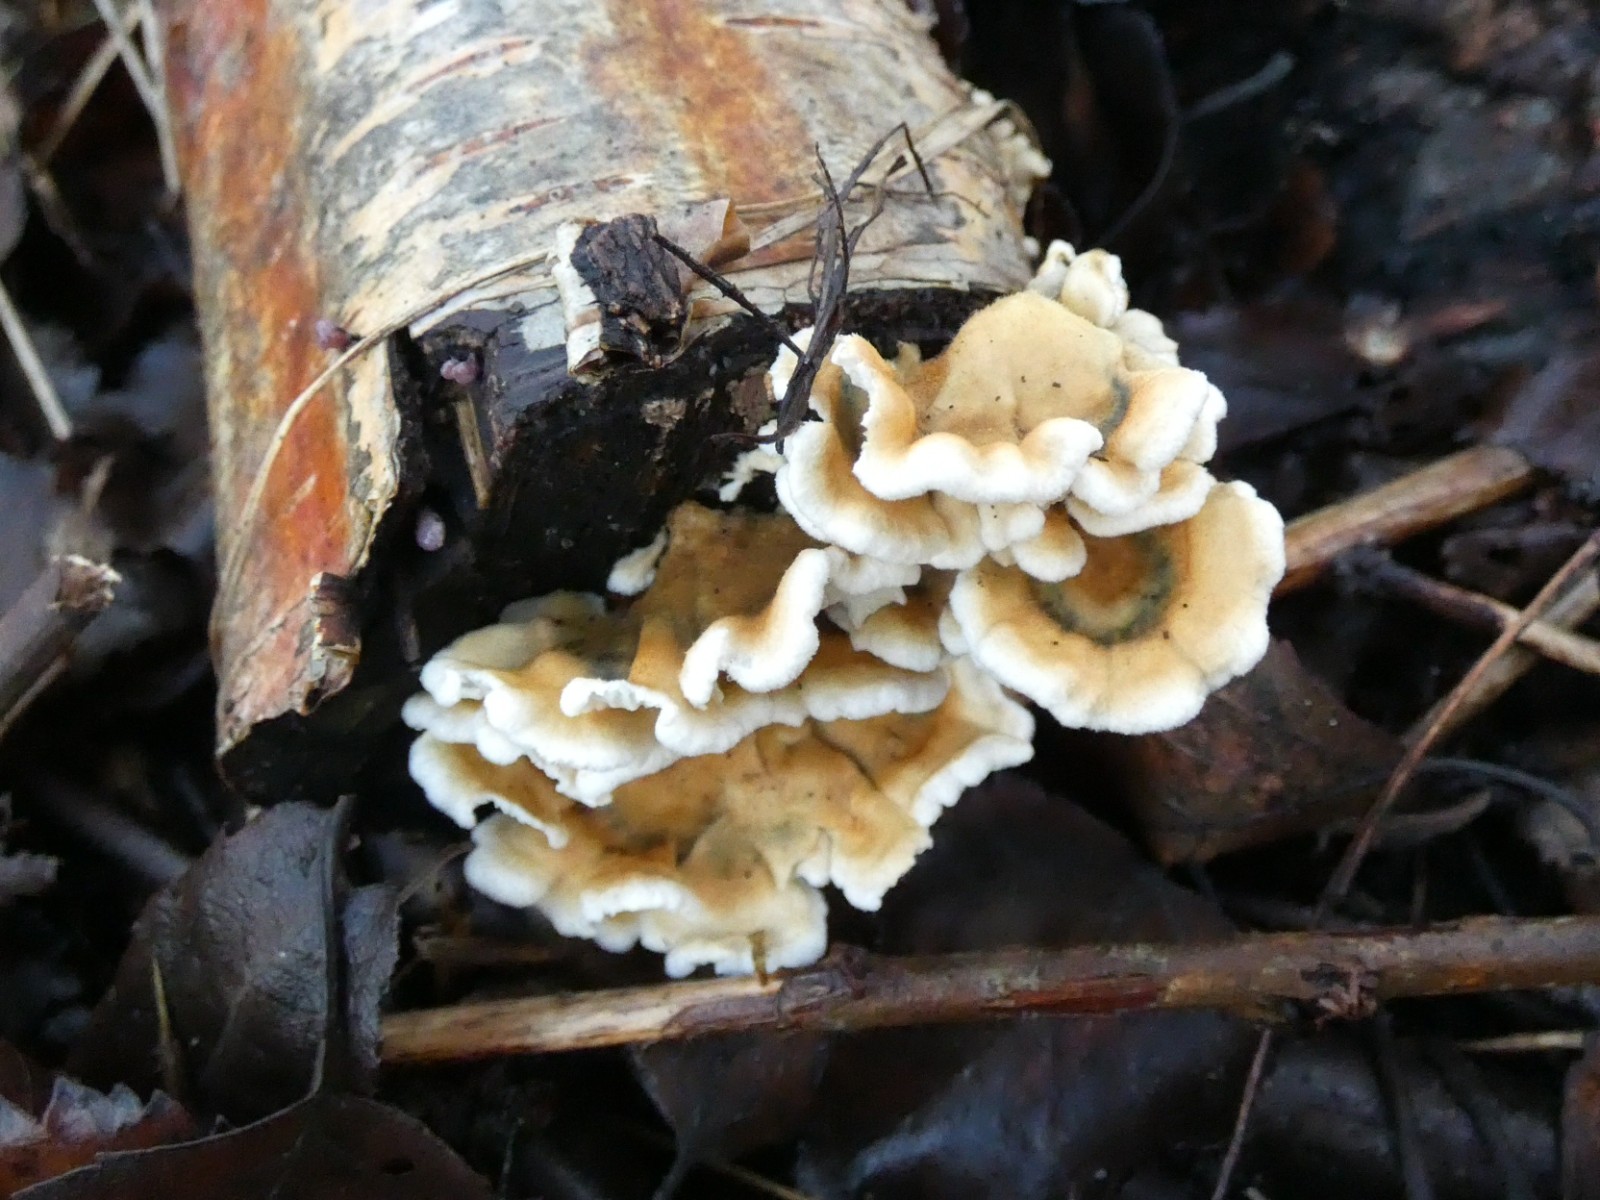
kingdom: Fungi
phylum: Basidiomycota
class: Agaricomycetes
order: Amylocorticiales
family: Amylocorticiaceae
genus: Plicaturopsis
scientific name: Plicaturopsis crispa
